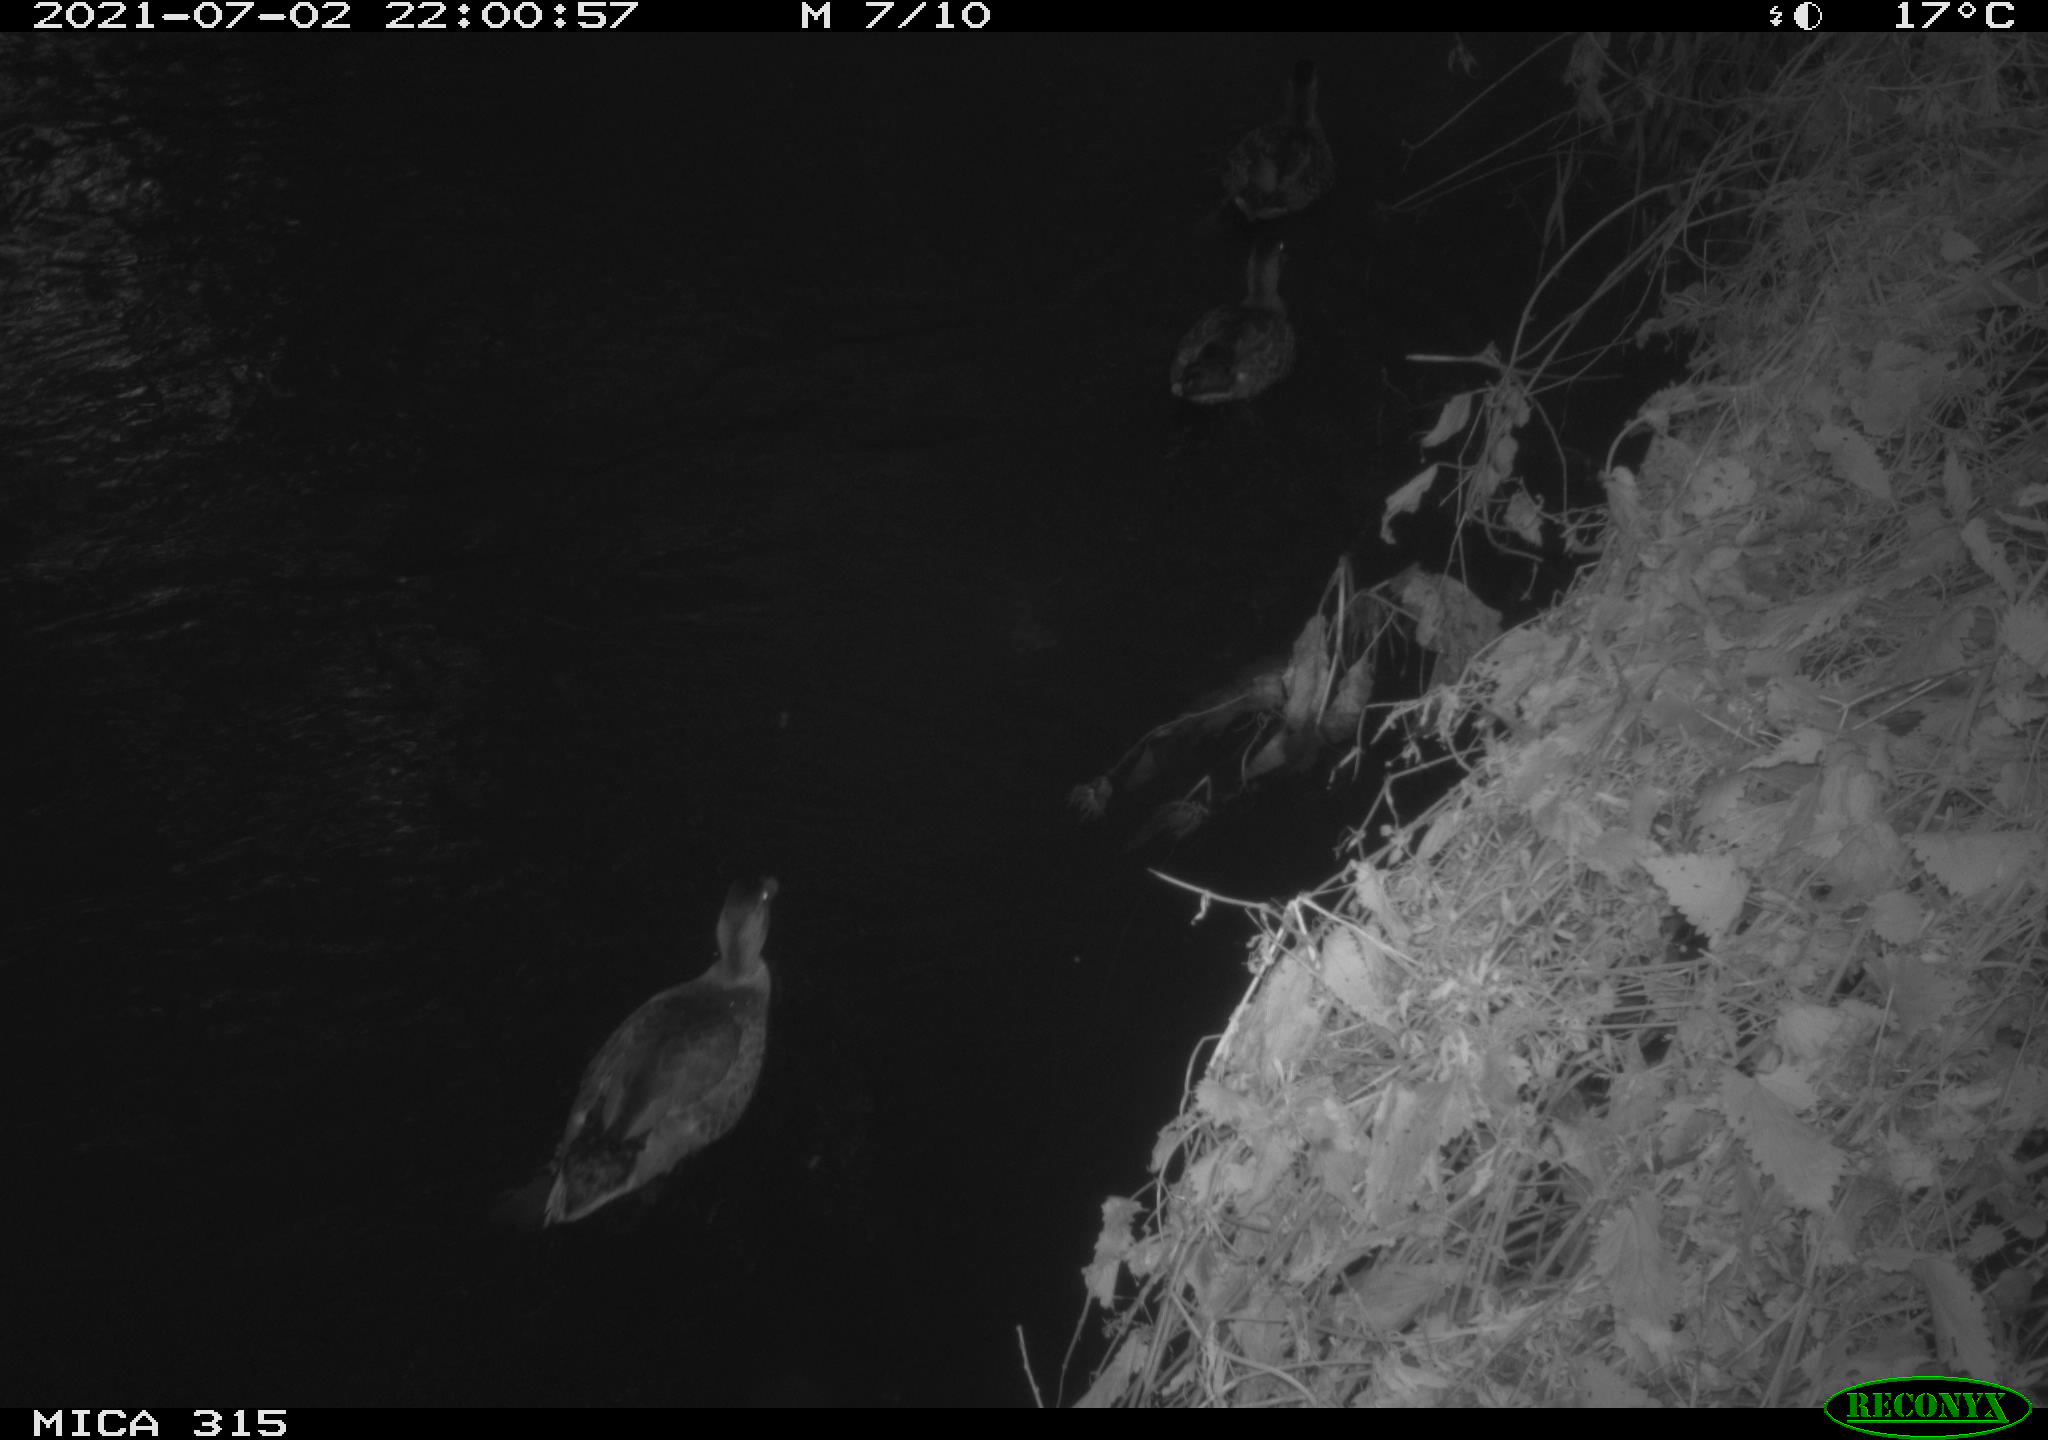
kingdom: Animalia
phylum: Chordata
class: Aves
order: Anseriformes
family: Anatidae
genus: Anas
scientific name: Anas platyrhynchos
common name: Mallard
